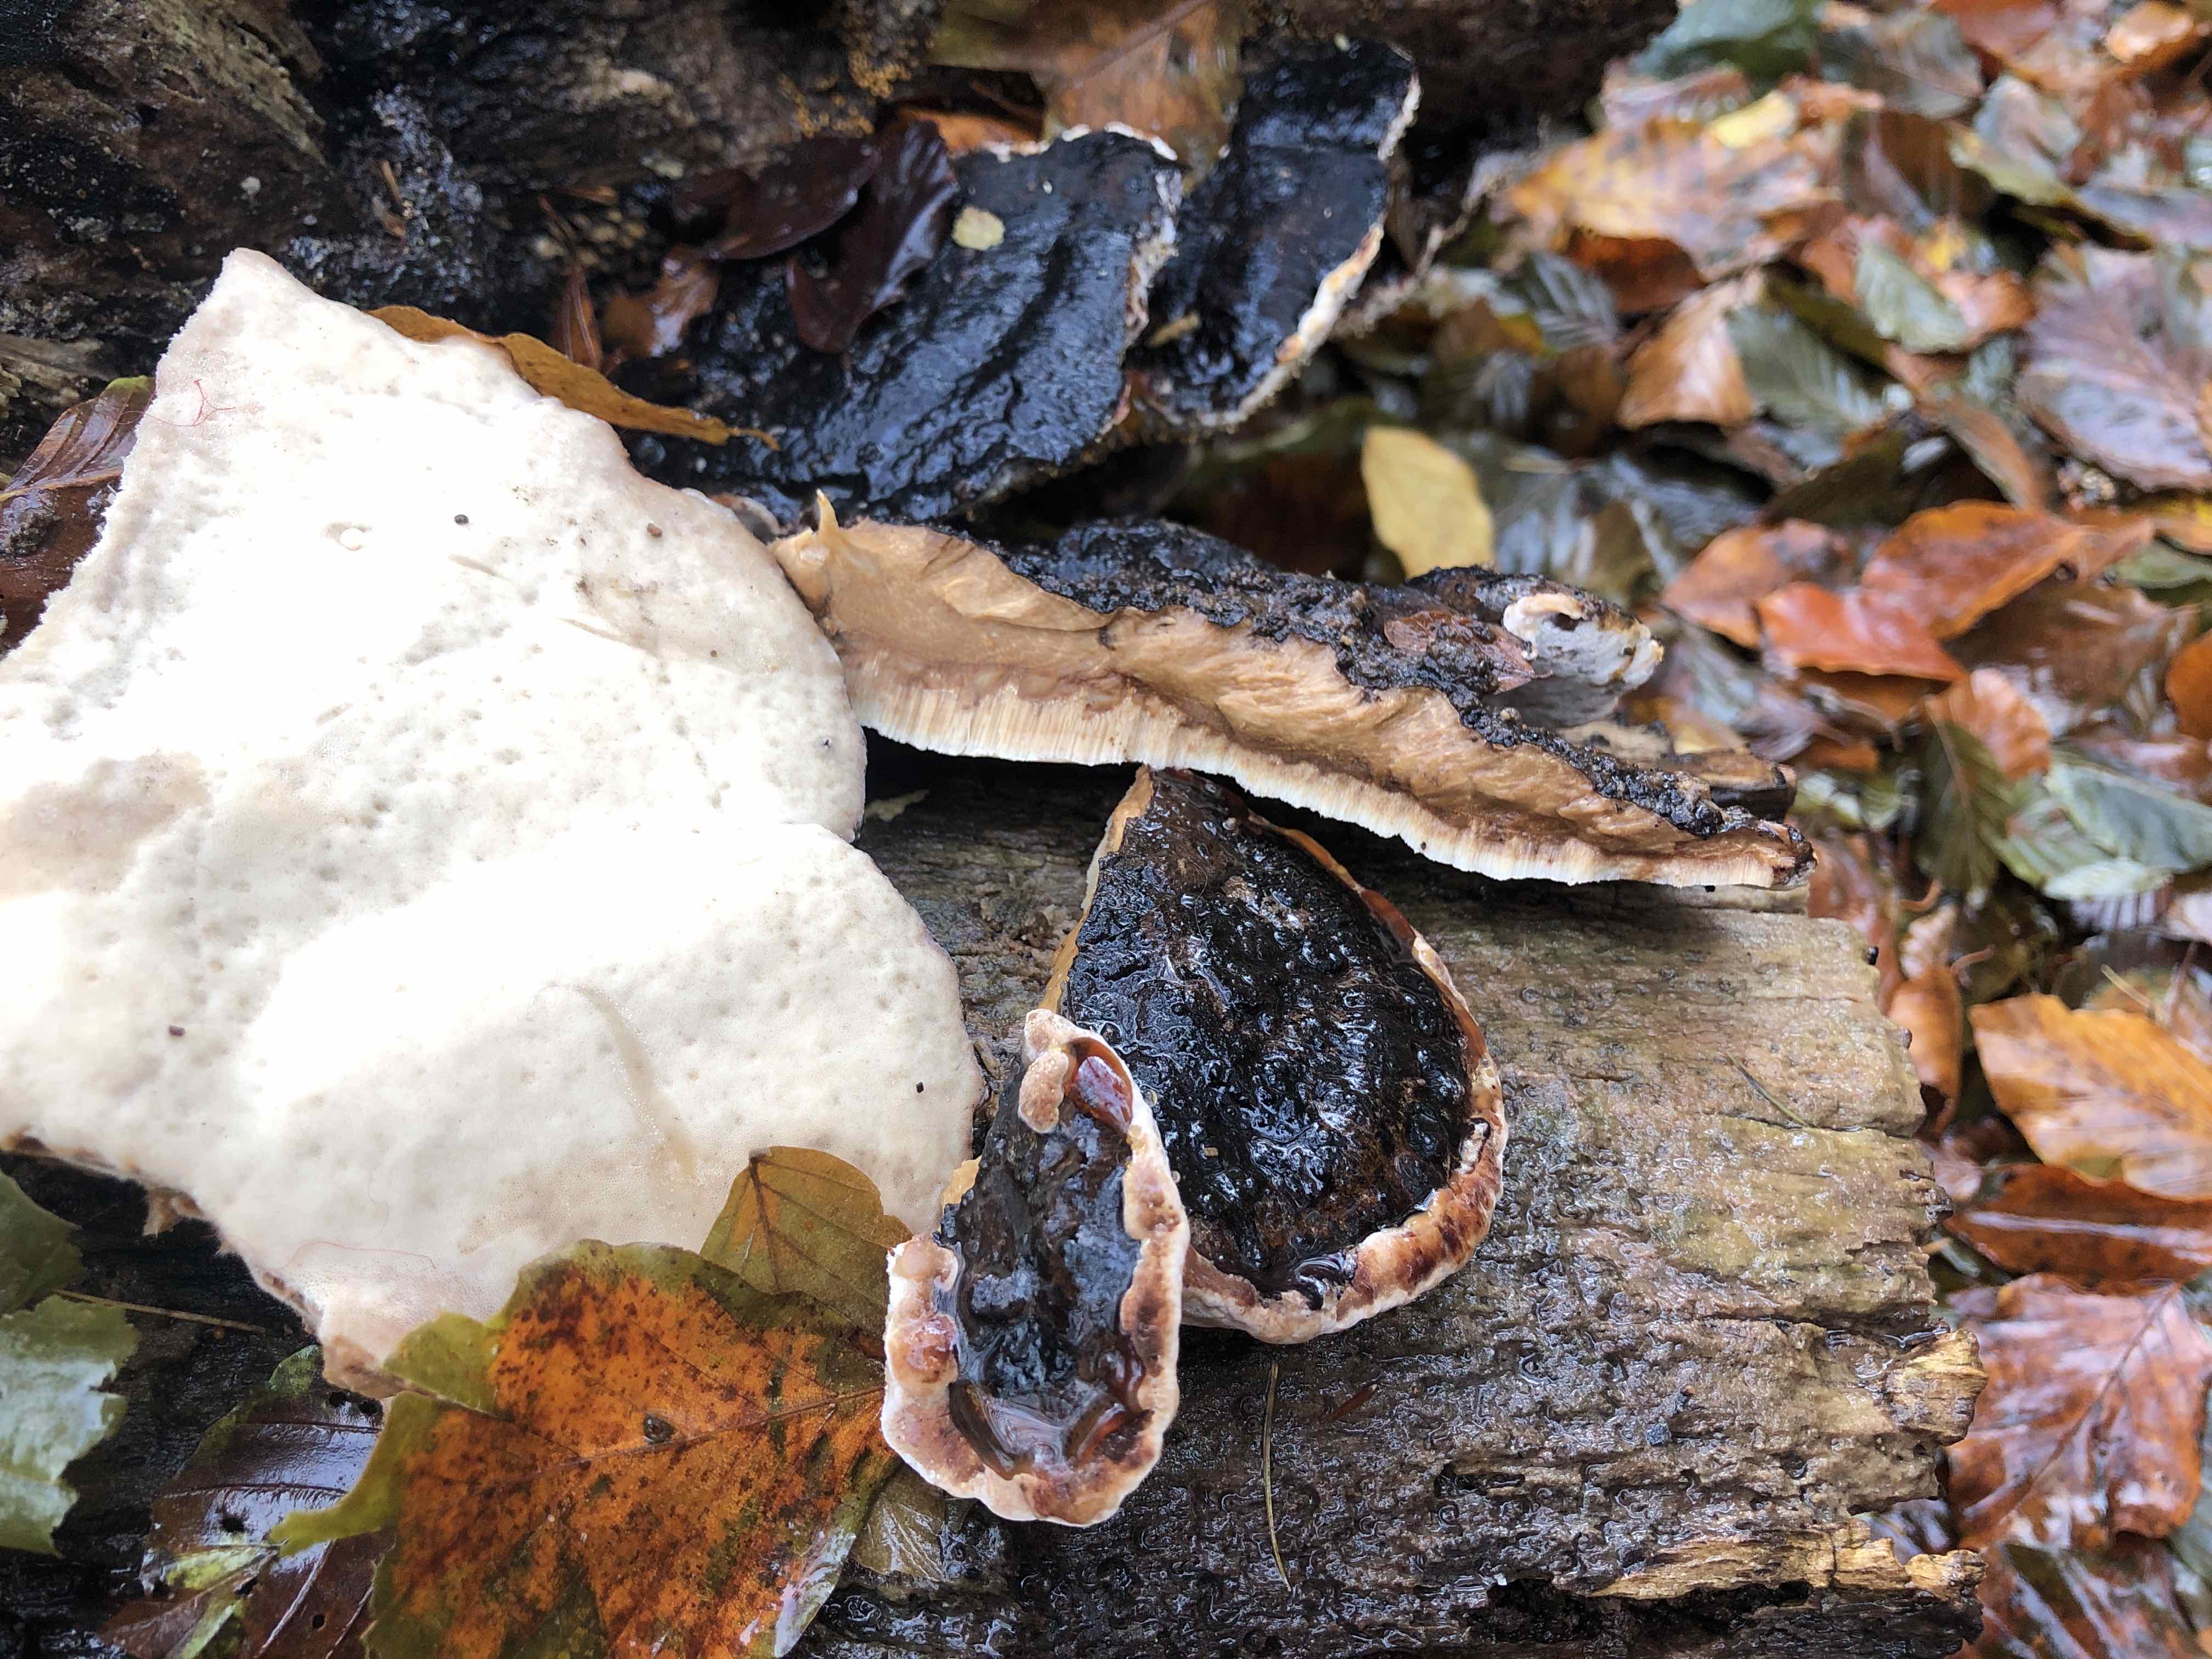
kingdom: Fungi
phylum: Basidiomycota
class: Agaricomycetes
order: Polyporales
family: Ischnodermataceae
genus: Ischnoderma
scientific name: Ischnoderma resinosum
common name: løv-tjæreporesvamp
